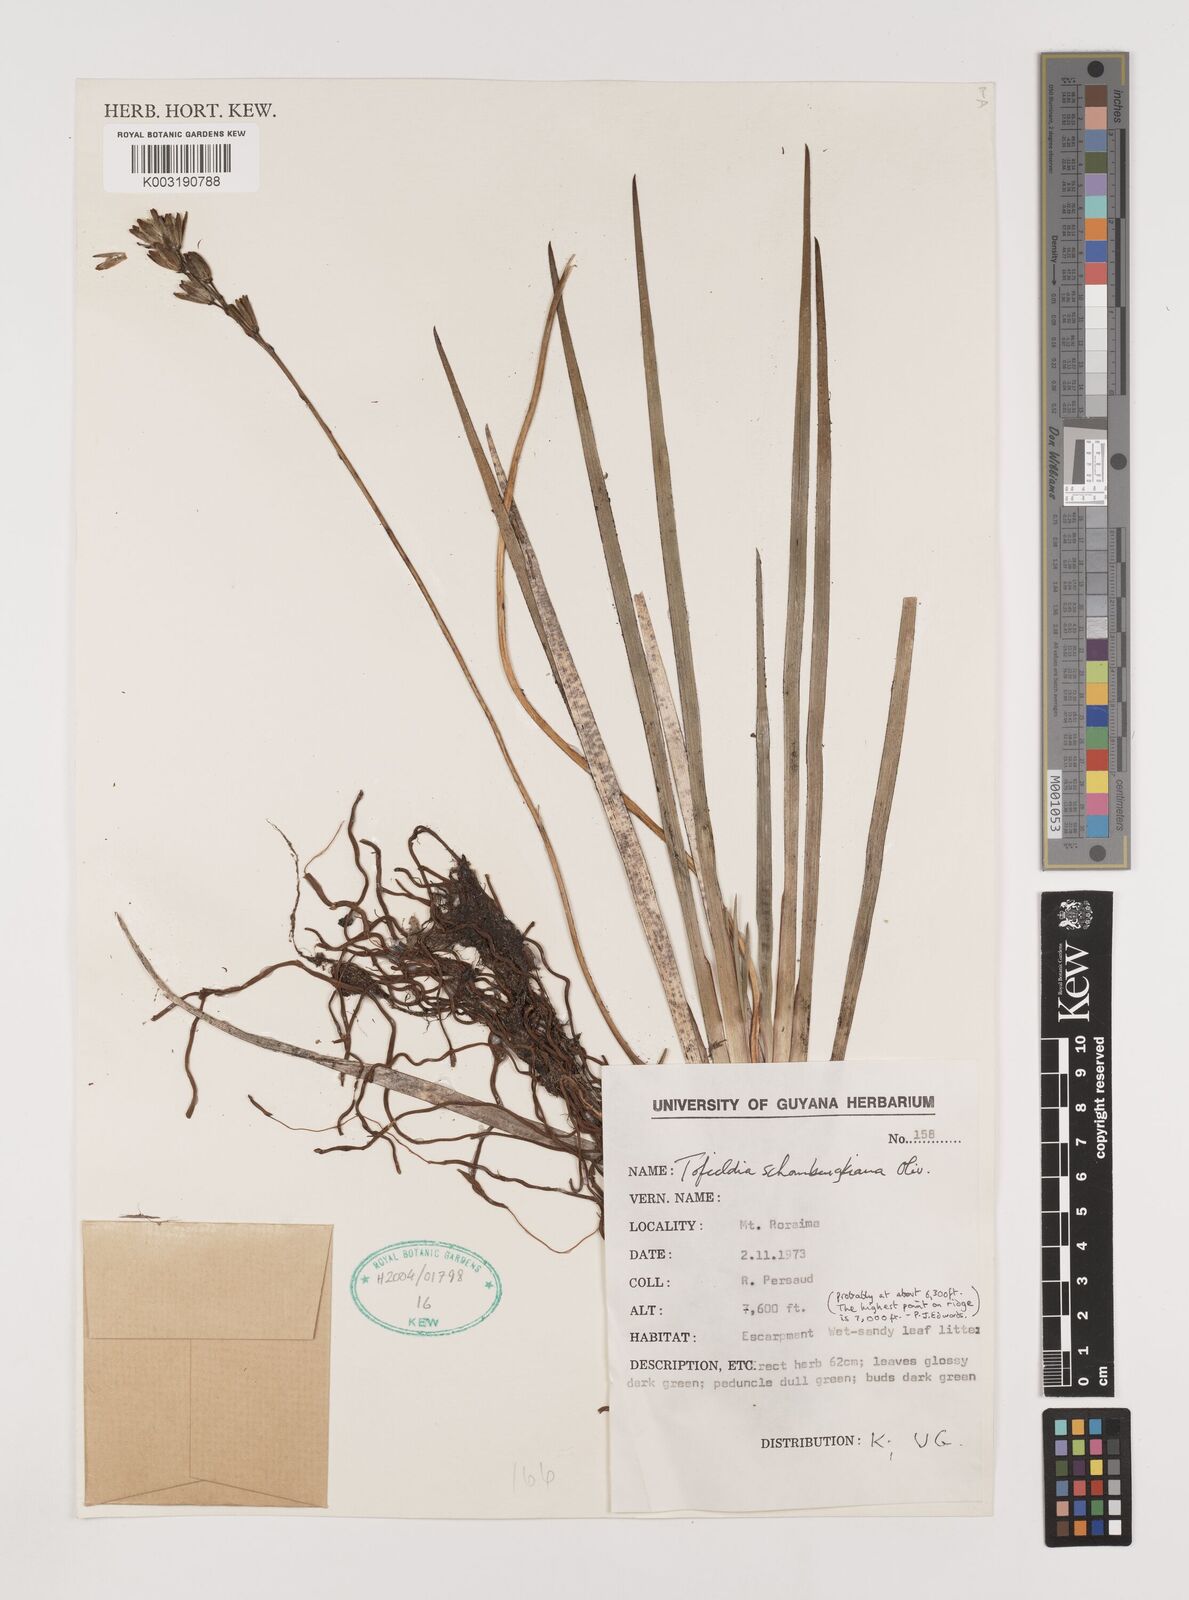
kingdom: Plantae
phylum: Tracheophyta
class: Liliopsida
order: Alismatales
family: Tofieldiaceae
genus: Harperocallis
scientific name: Harperocallis schomburgkiana
